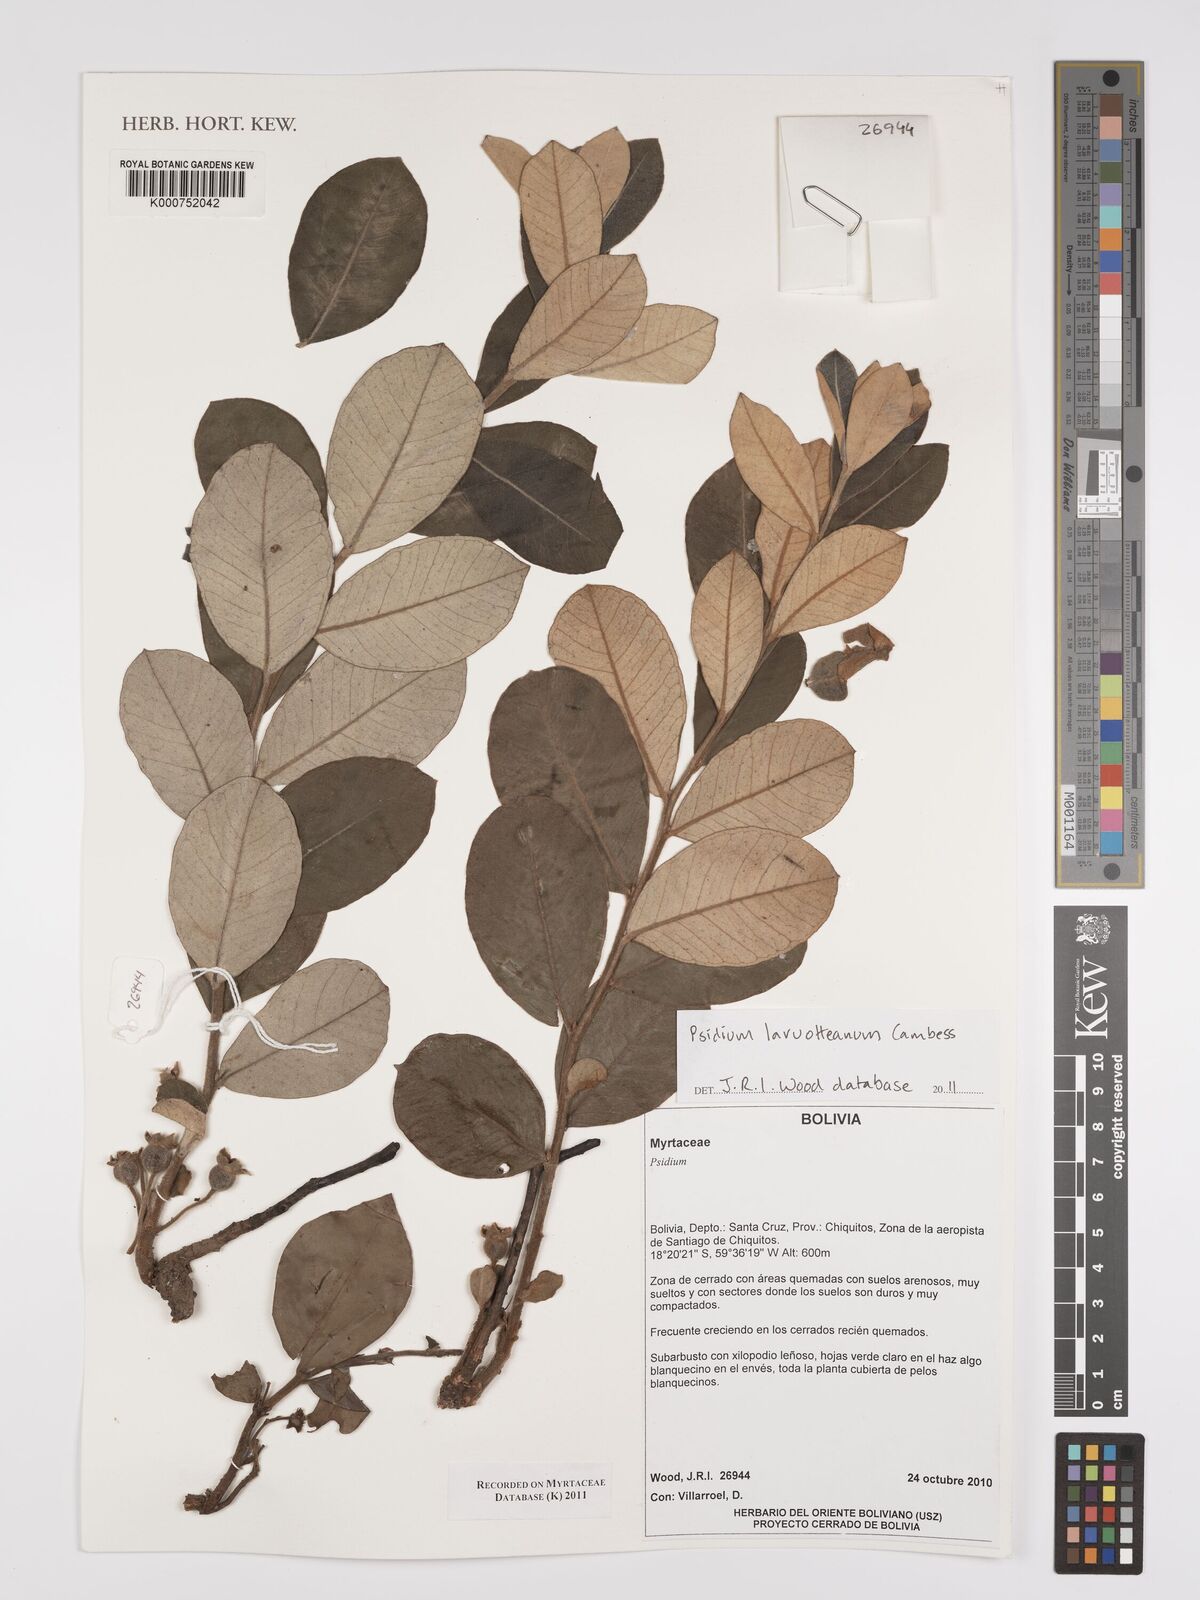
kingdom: Plantae
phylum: Tracheophyta
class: Magnoliopsida
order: Myrtales
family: Myrtaceae
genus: Psidium
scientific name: Psidium larueotteanum
